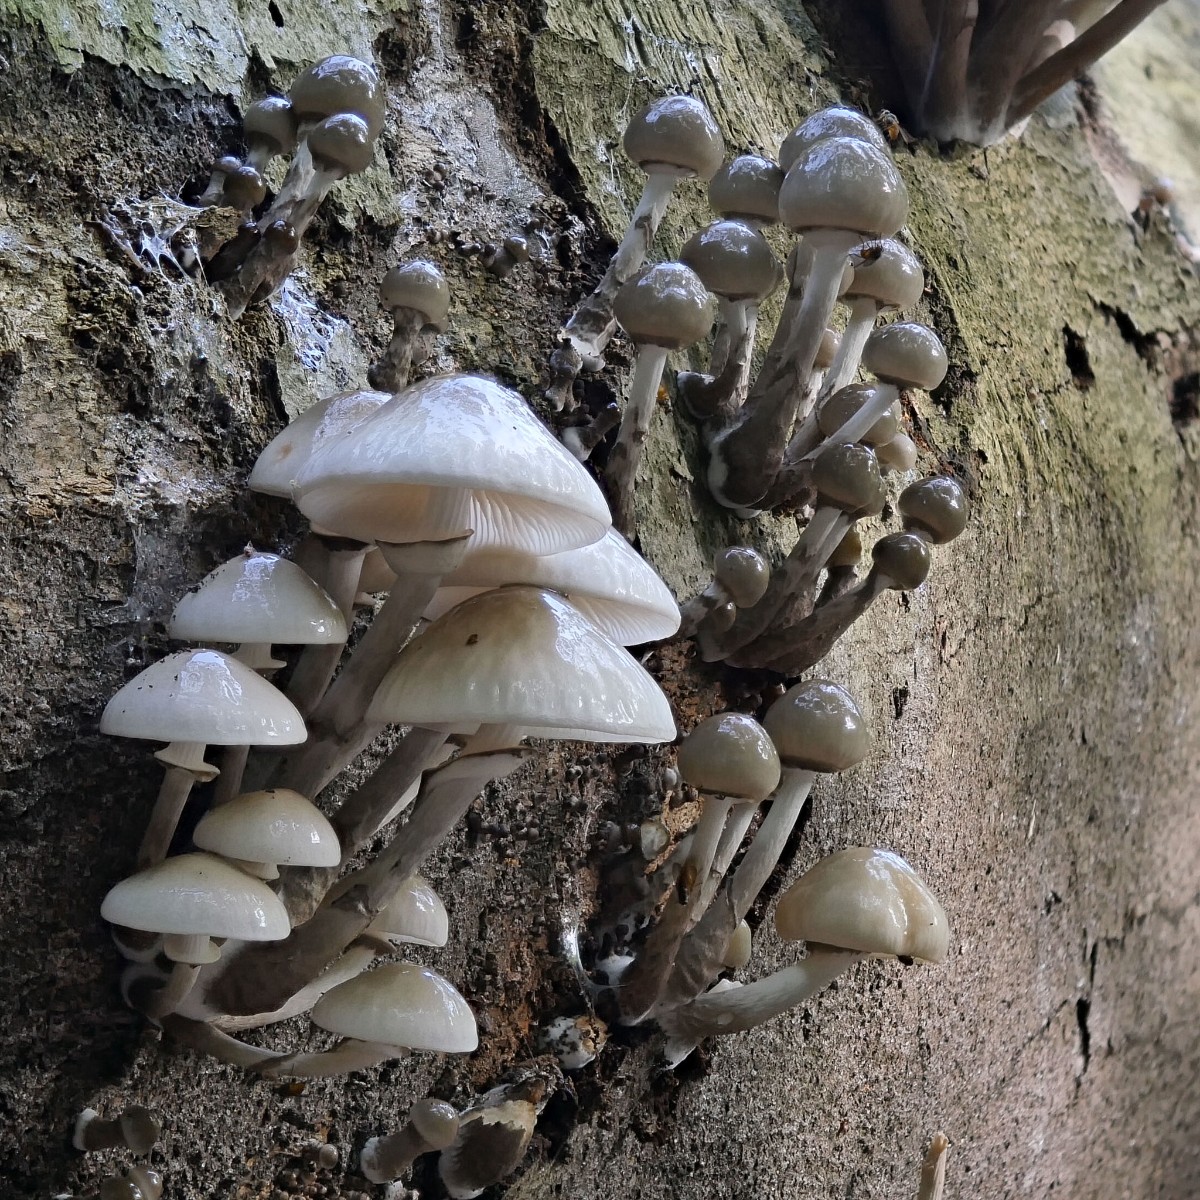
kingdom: Fungi
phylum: Basidiomycota
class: Agaricomycetes
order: Agaricales
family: Physalacriaceae
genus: Mucidula
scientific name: Mucidula mucida
